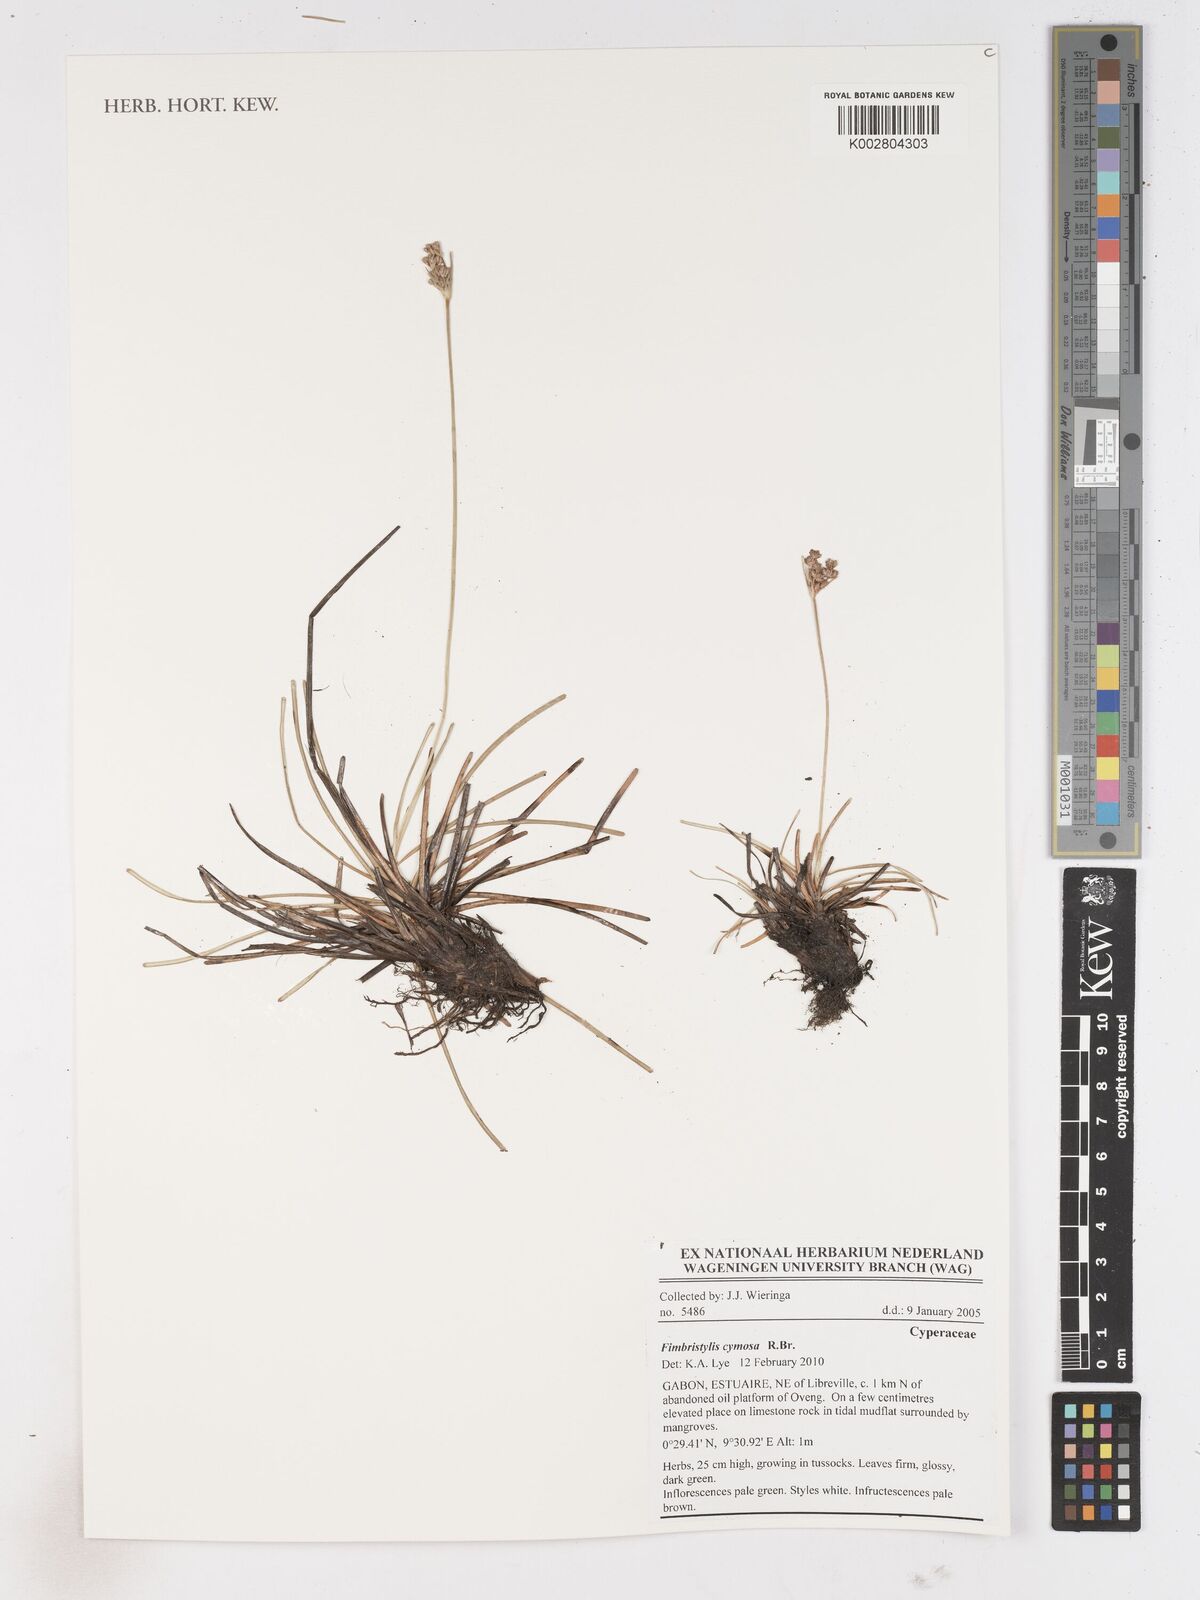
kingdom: Plantae
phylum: Tracheophyta
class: Liliopsida
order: Poales
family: Cyperaceae
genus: Fimbristylis
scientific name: Fimbristylis cymosa
